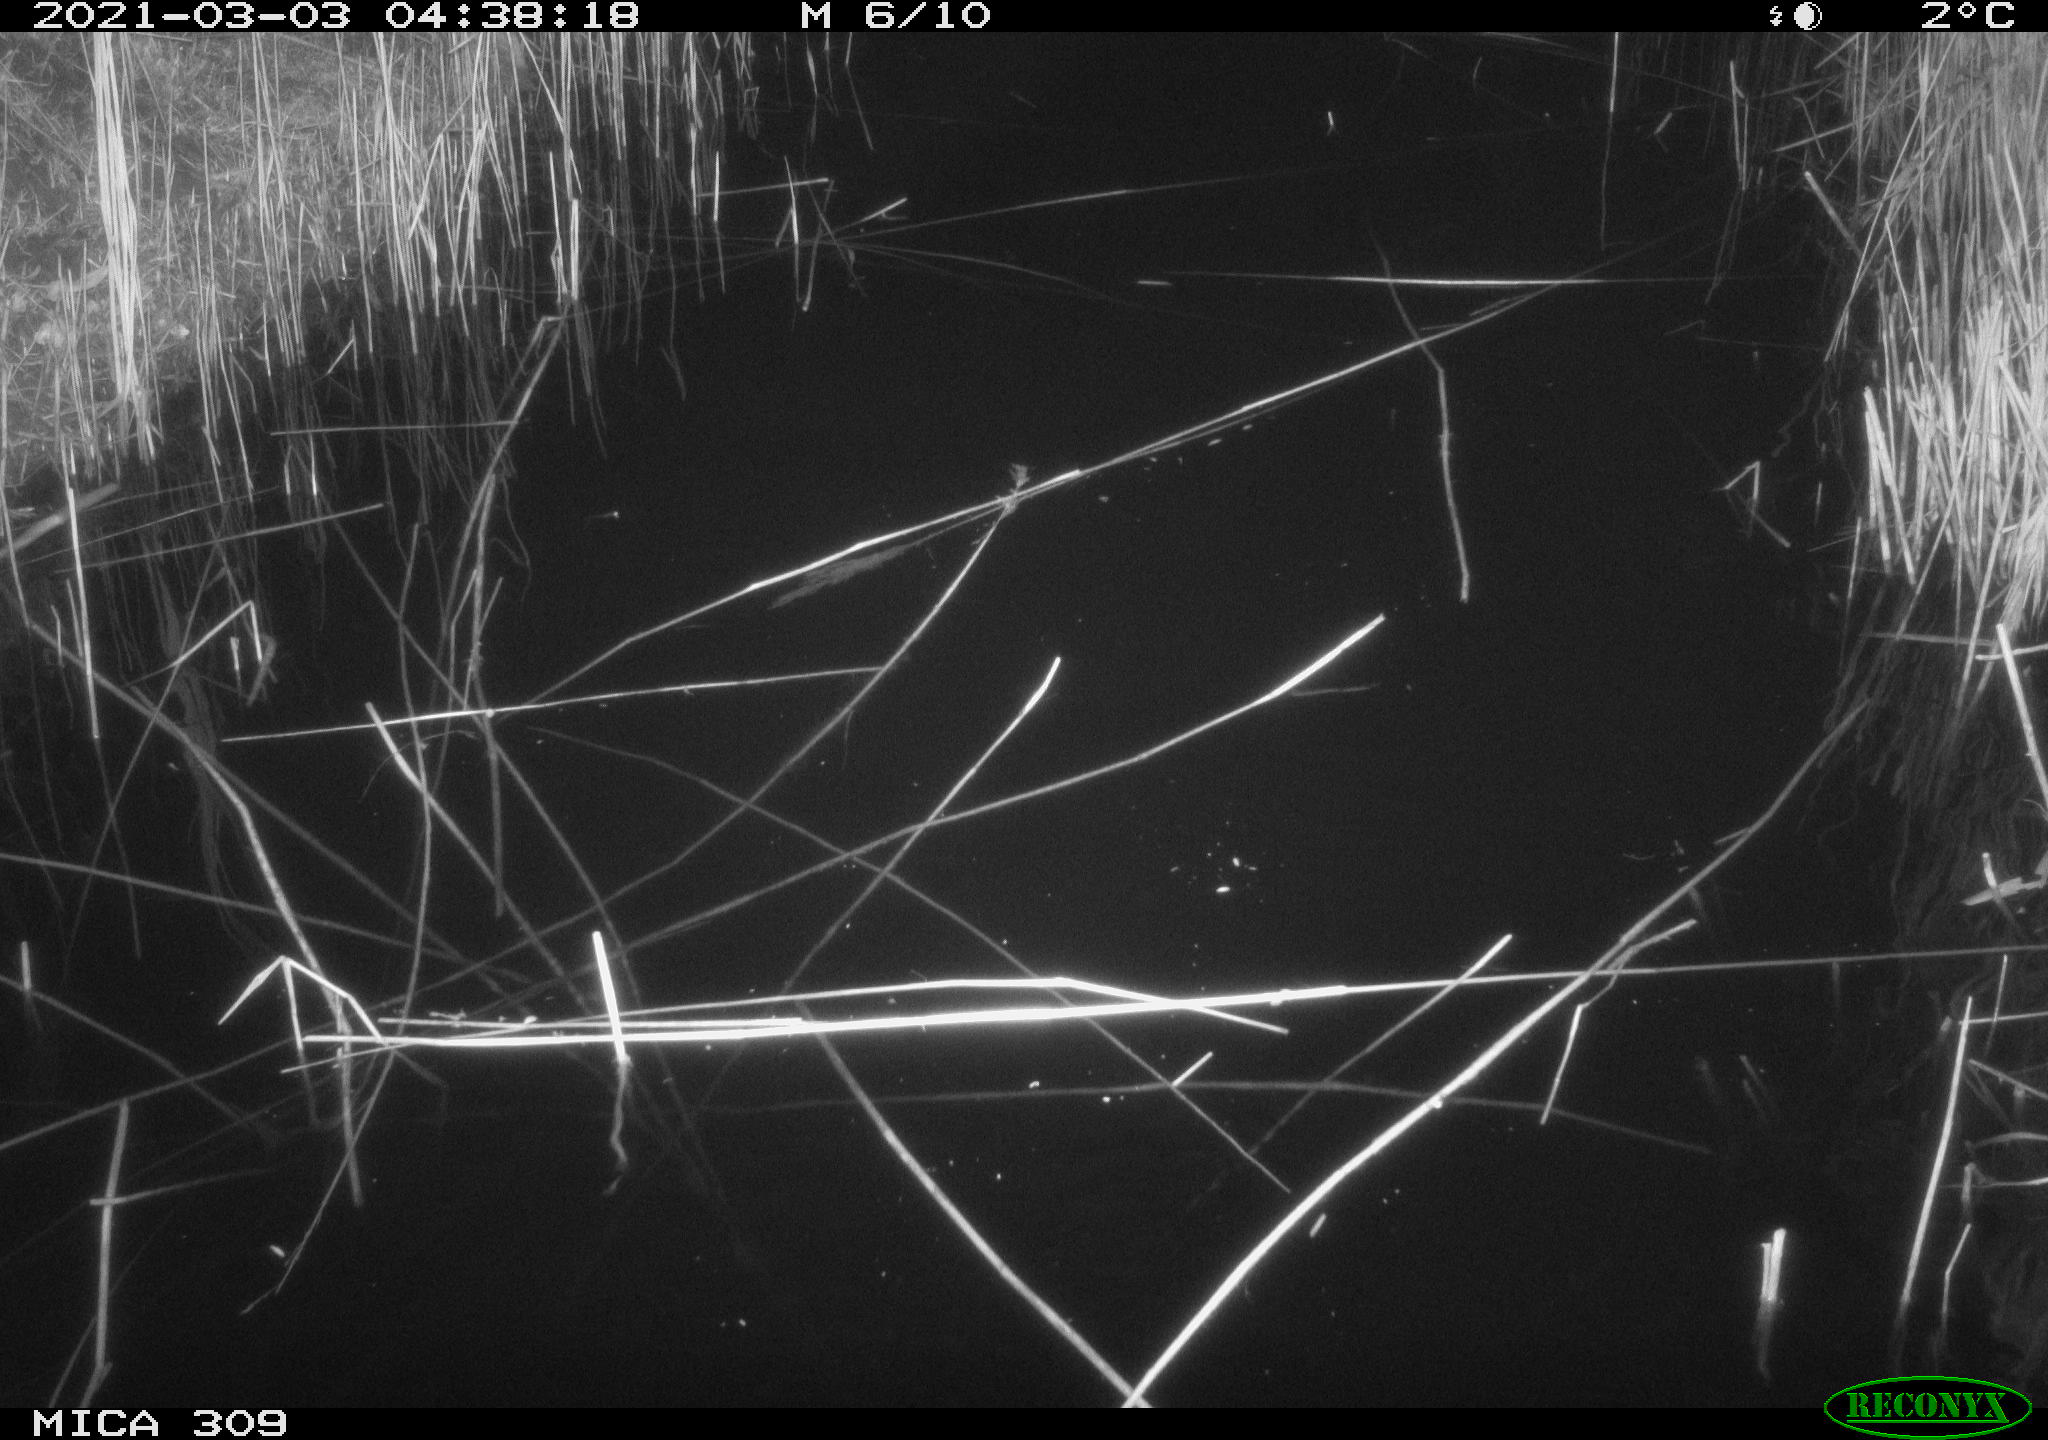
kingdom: Animalia
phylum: Chordata
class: Mammalia
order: Rodentia
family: Cricetidae
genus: Ondatra
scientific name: Ondatra zibethicus
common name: Muskrat
